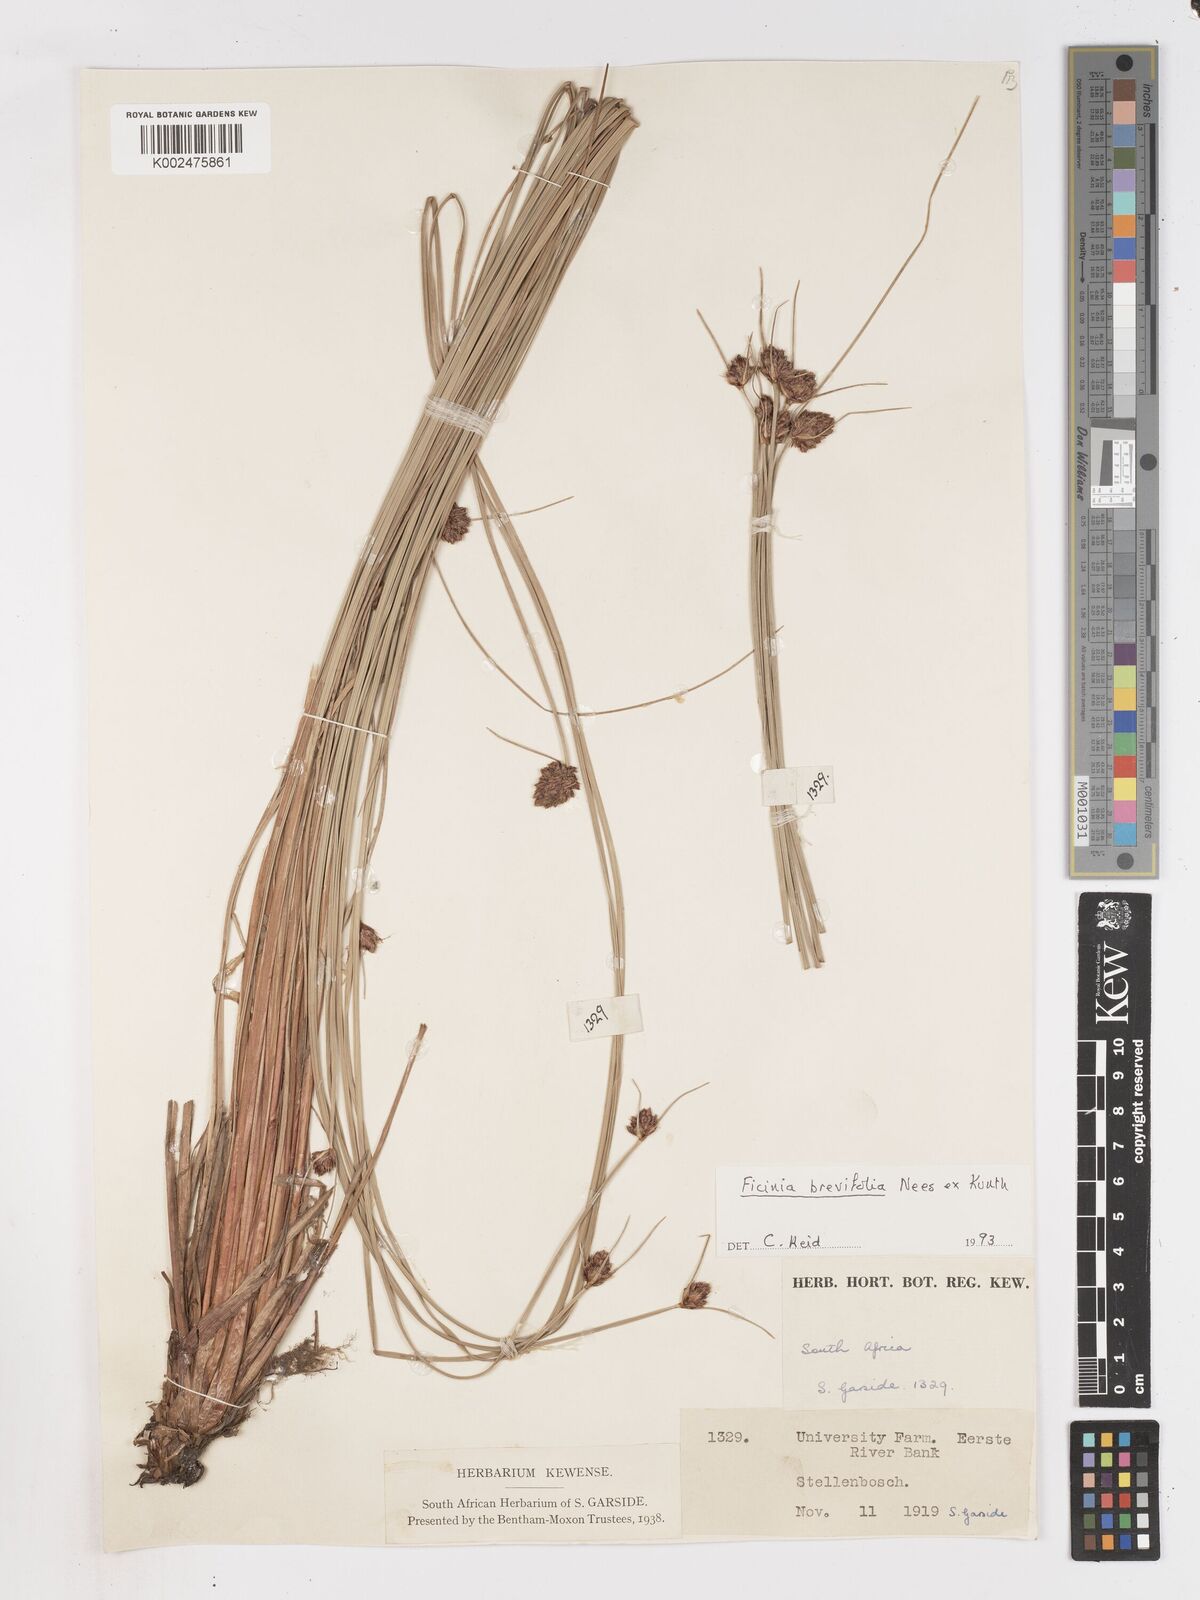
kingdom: Plantae
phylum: Tracheophyta
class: Liliopsida
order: Poales
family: Cyperaceae
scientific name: Cyperaceae
